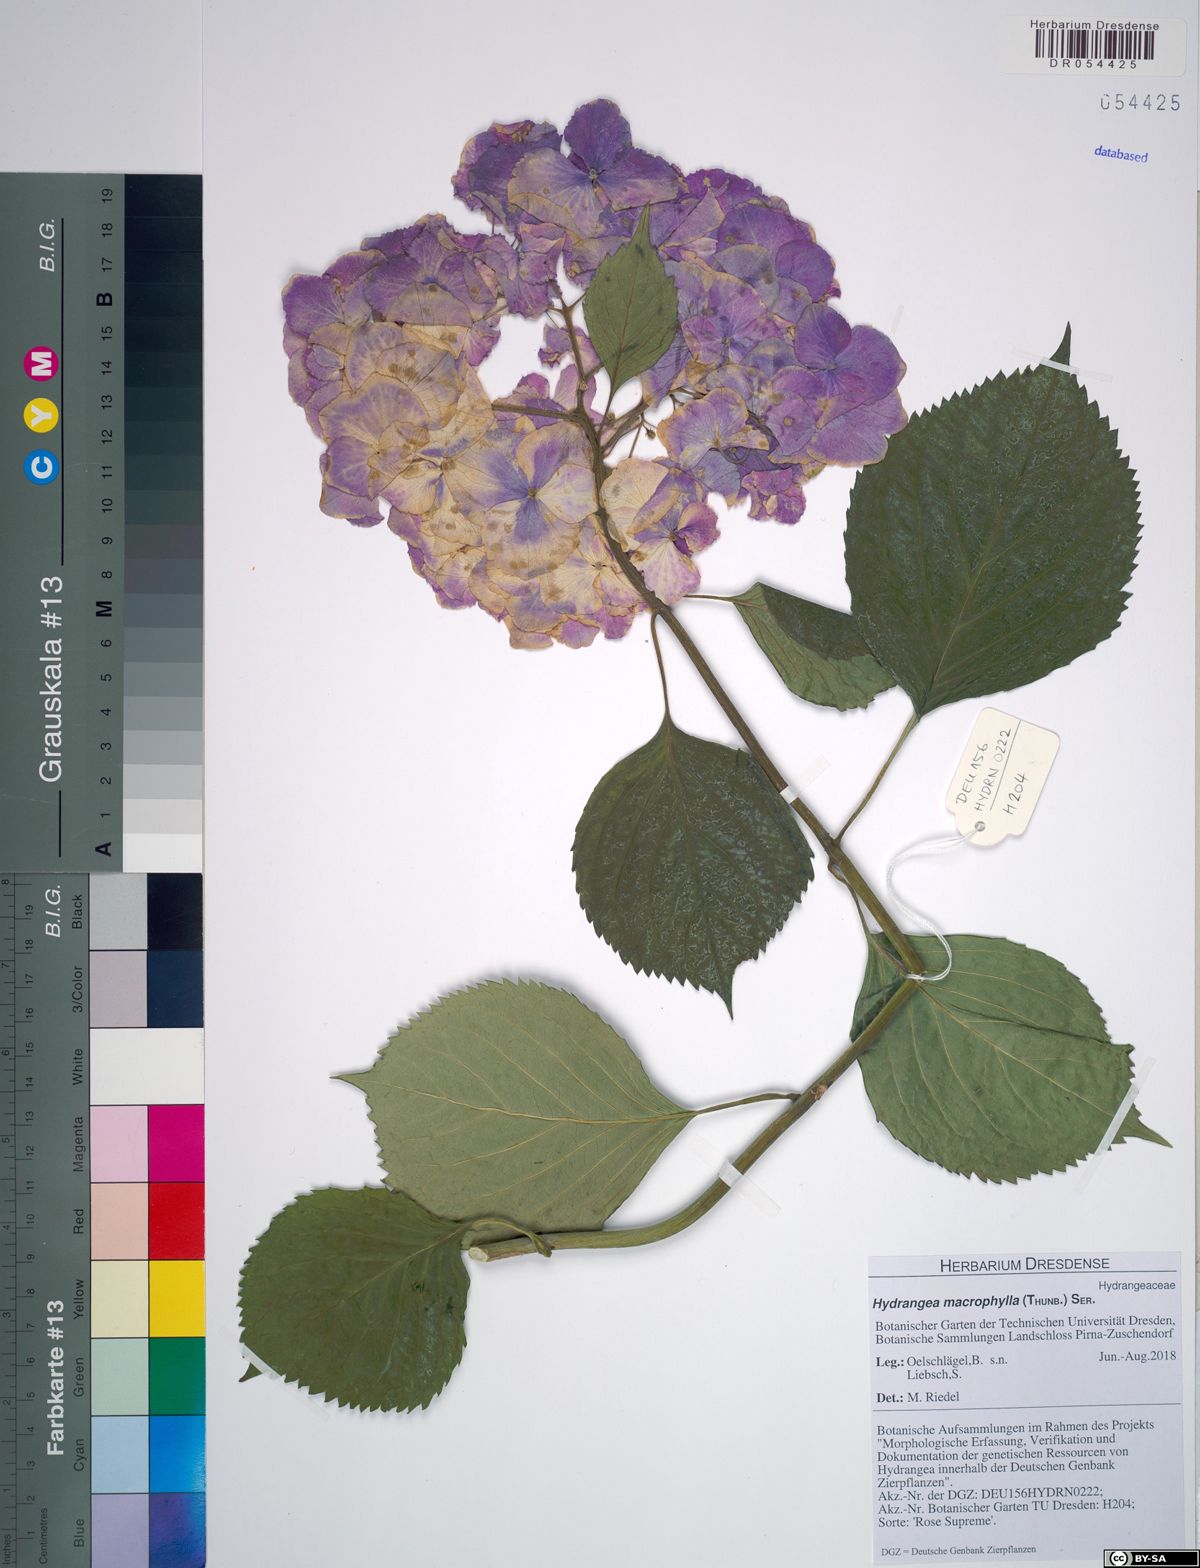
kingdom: Plantae
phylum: Tracheophyta
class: Magnoliopsida
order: Cornales
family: Hydrangeaceae
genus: Hydrangea
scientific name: Hydrangea macrophylla
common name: Hydrangea
